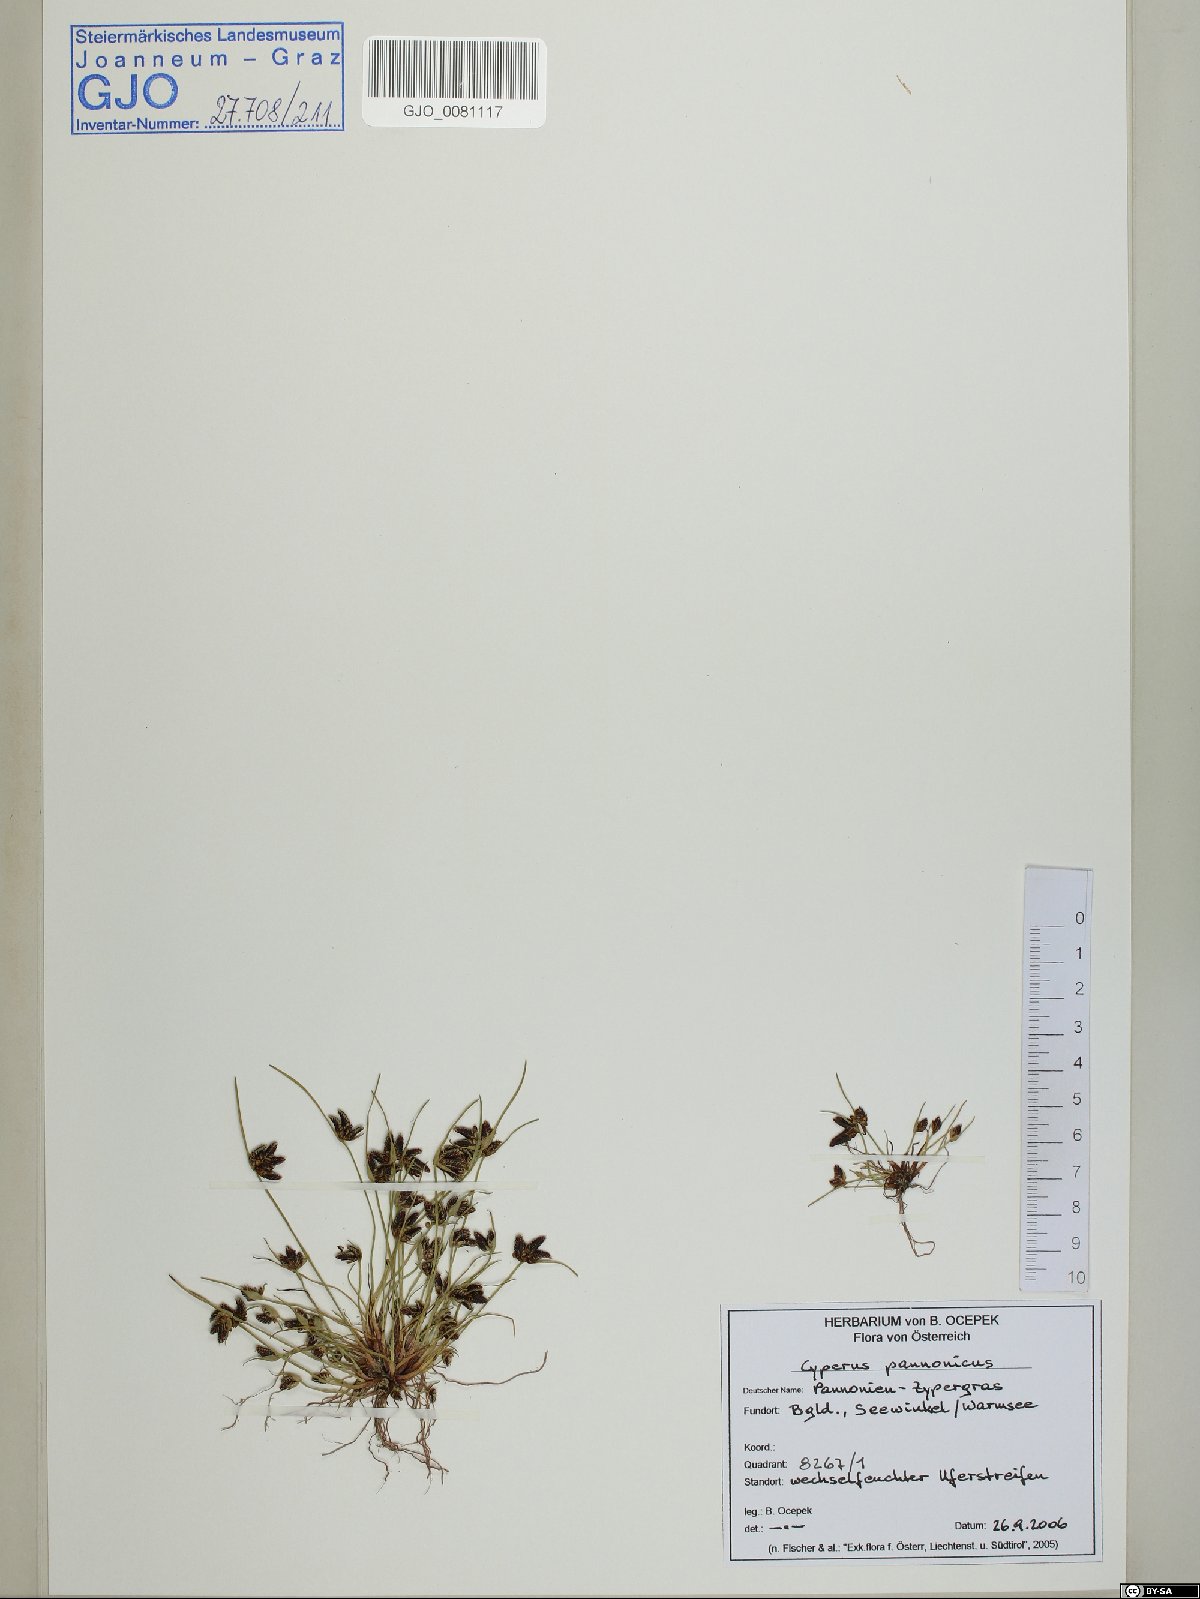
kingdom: Plantae
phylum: Tracheophyta
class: Liliopsida
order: Poales
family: Cyperaceae
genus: Cyperus
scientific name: Cyperus pannonicus
